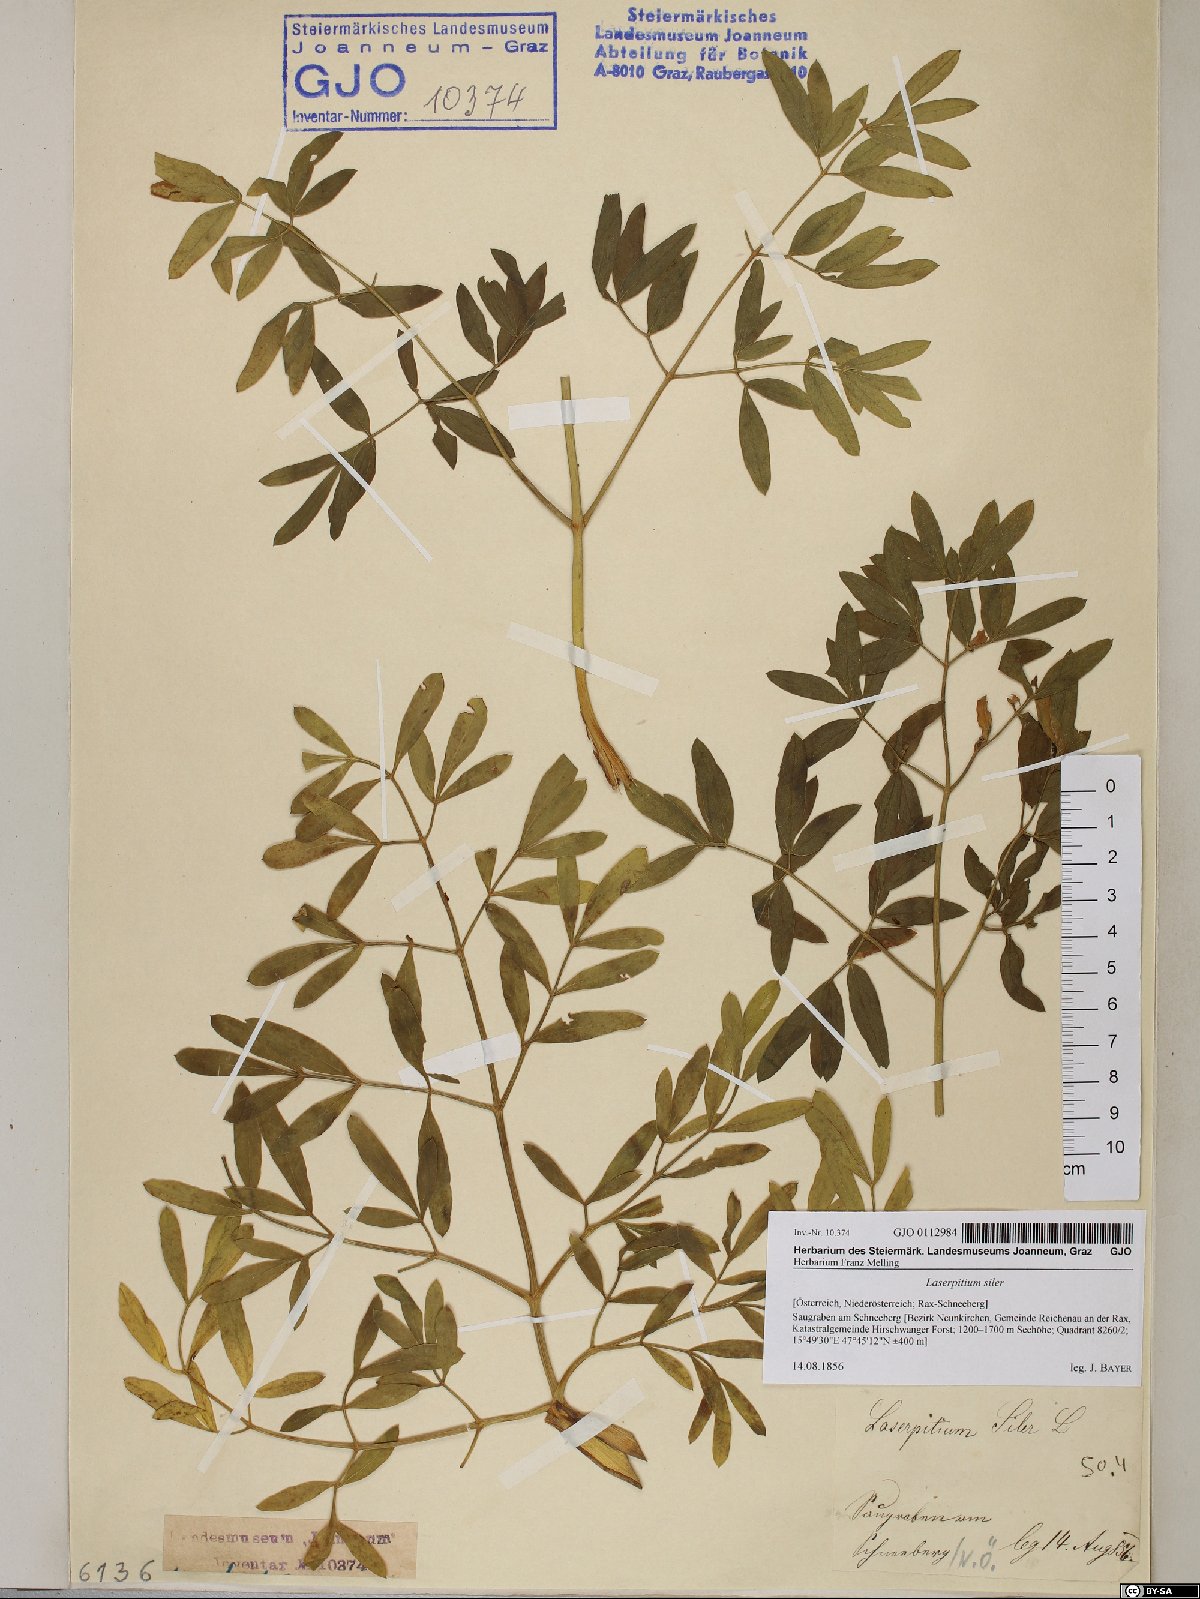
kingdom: Plantae
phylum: Tracheophyta
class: Magnoliopsida
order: Apiales
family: Apiaceae
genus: Siler
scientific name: Siler montanum
